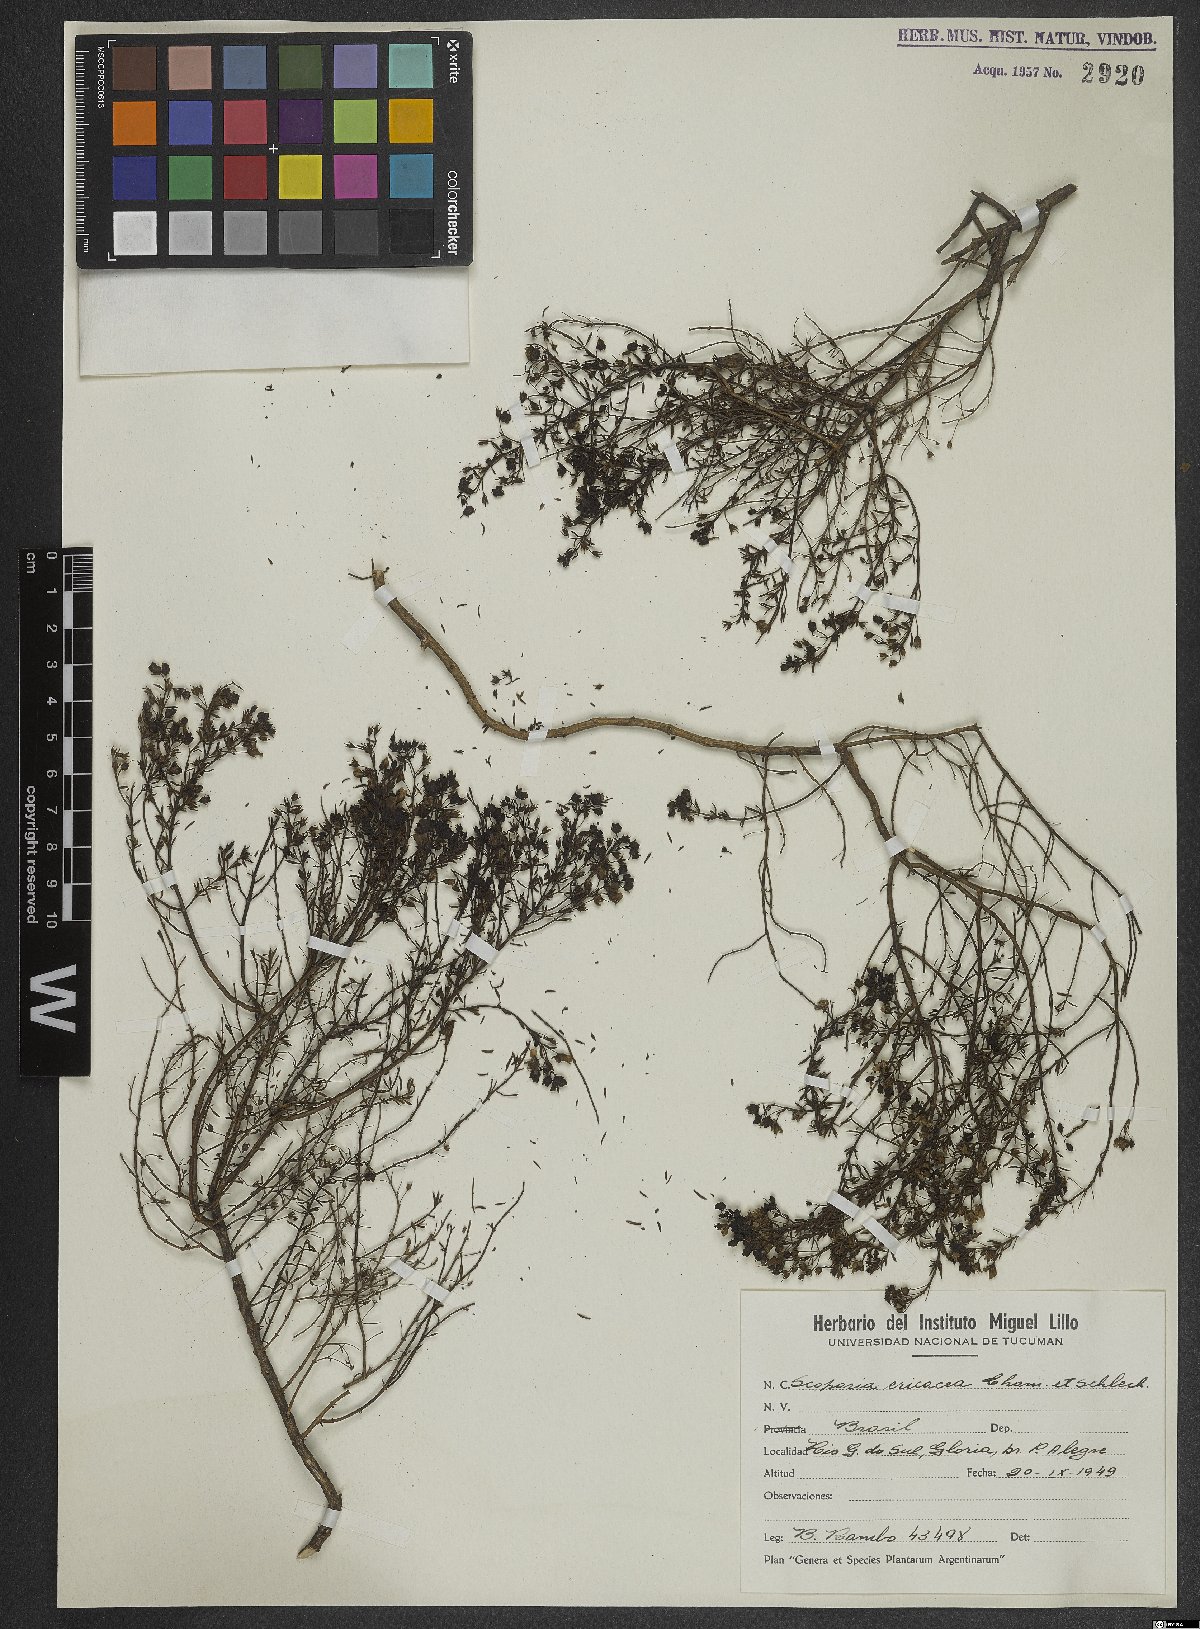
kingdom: Plantae
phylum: Tracheophyta
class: Magnoliopsida
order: Lamiales
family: Plantaginaceae
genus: Scoparia
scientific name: Scoparia ericacea
